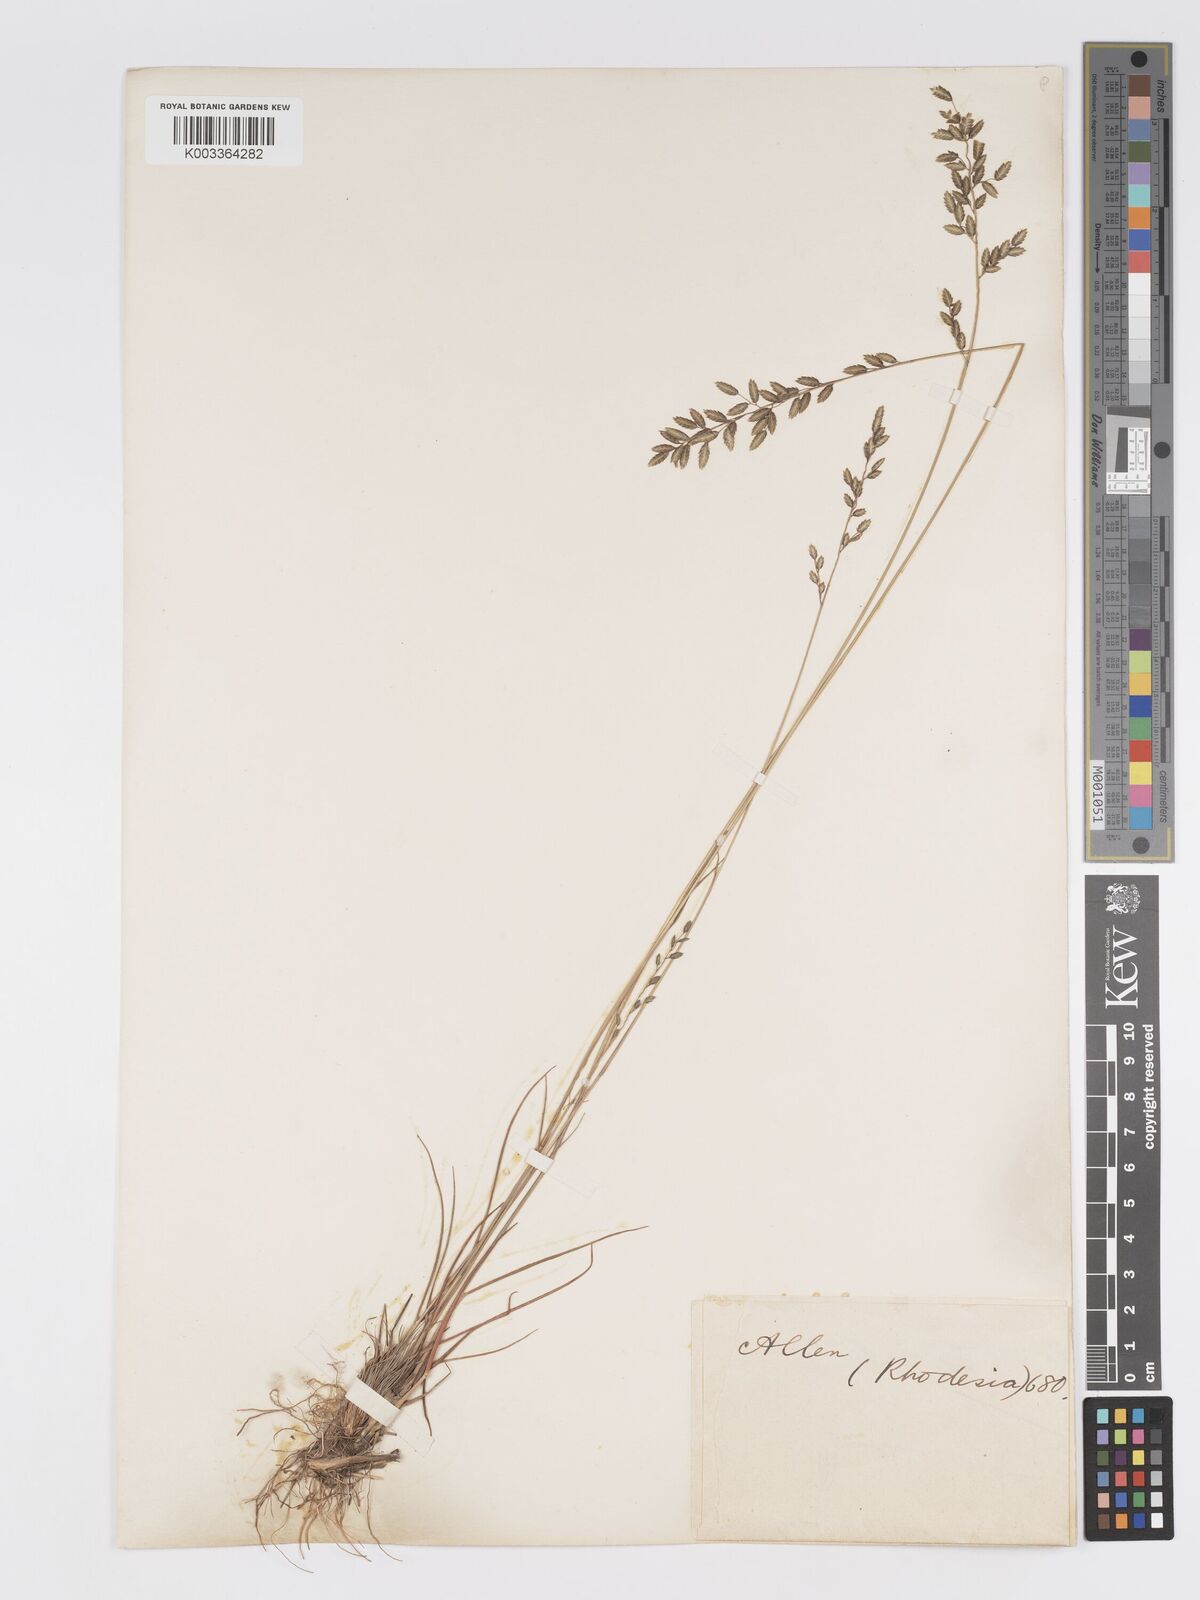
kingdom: Plantae
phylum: Tracheophyta
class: Liliopsida
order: Poales
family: Poaceae
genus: Eragrostis
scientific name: Eragrostis racemosa
